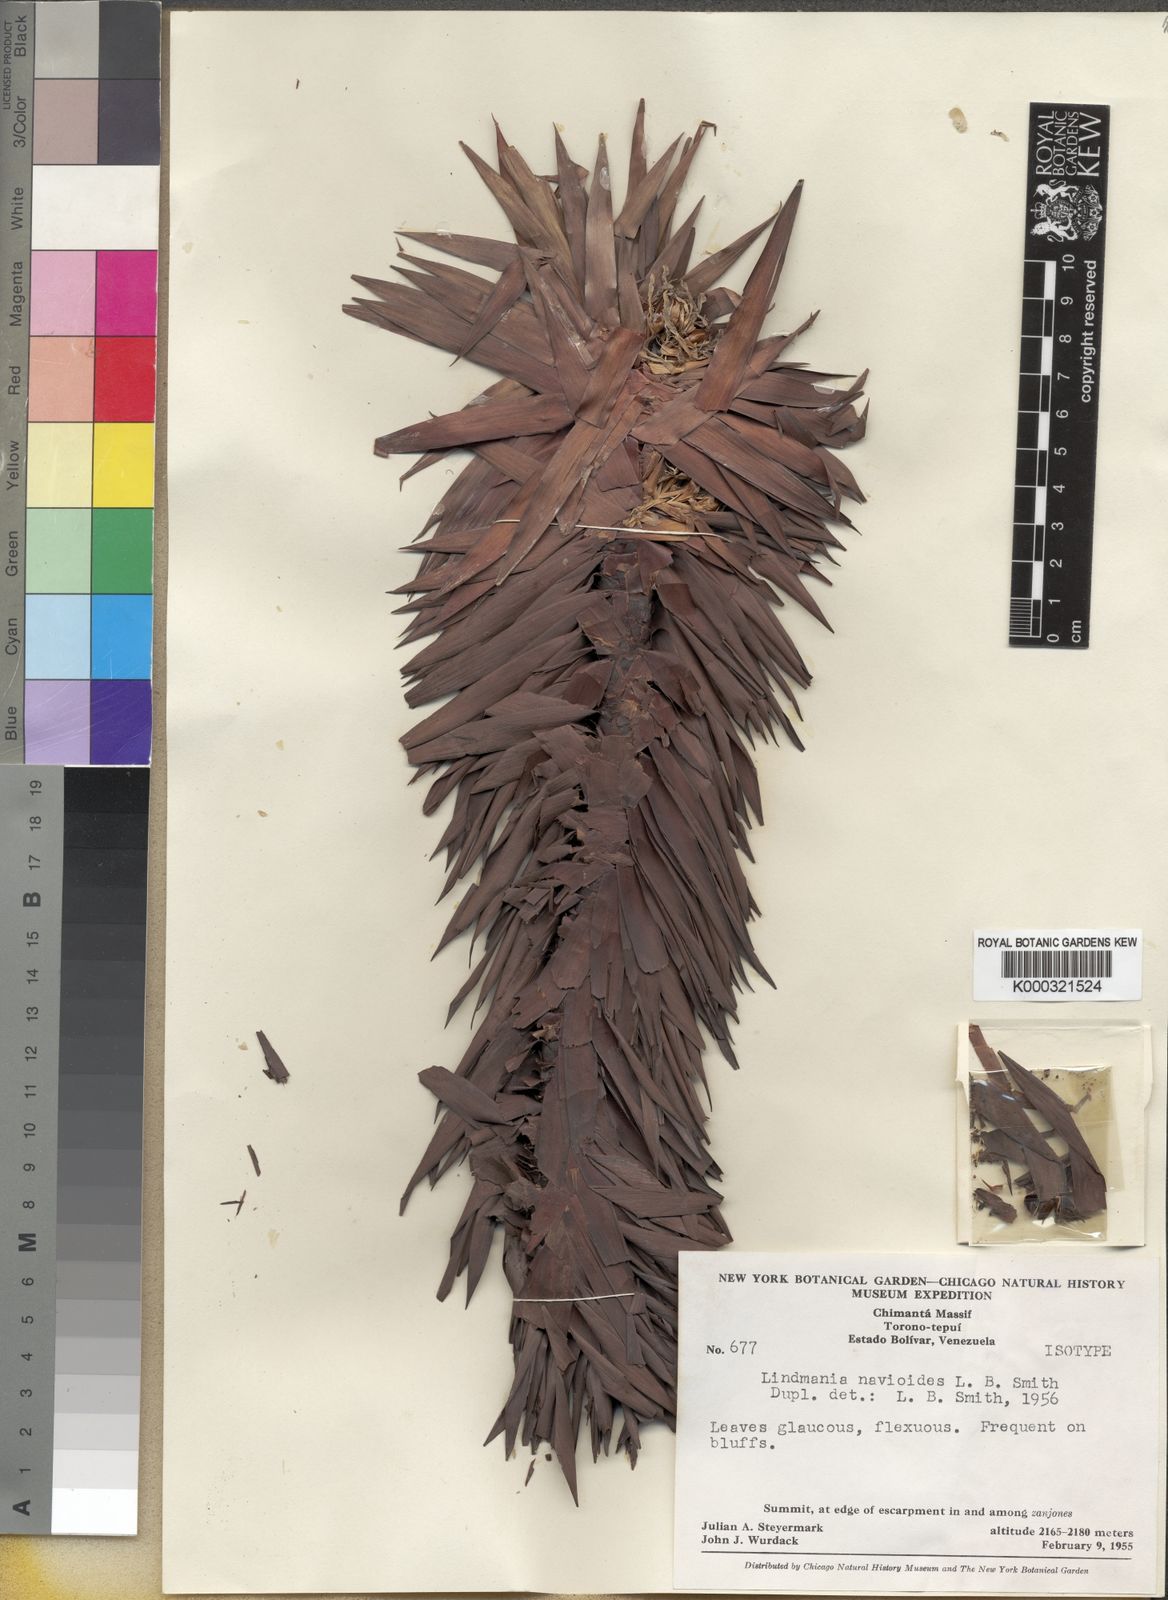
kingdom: Plantae
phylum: Tracheophyta
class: Liliopsida
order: Poales
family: Bromeliaceae
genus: Lindmania
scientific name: Lindmania navioides
